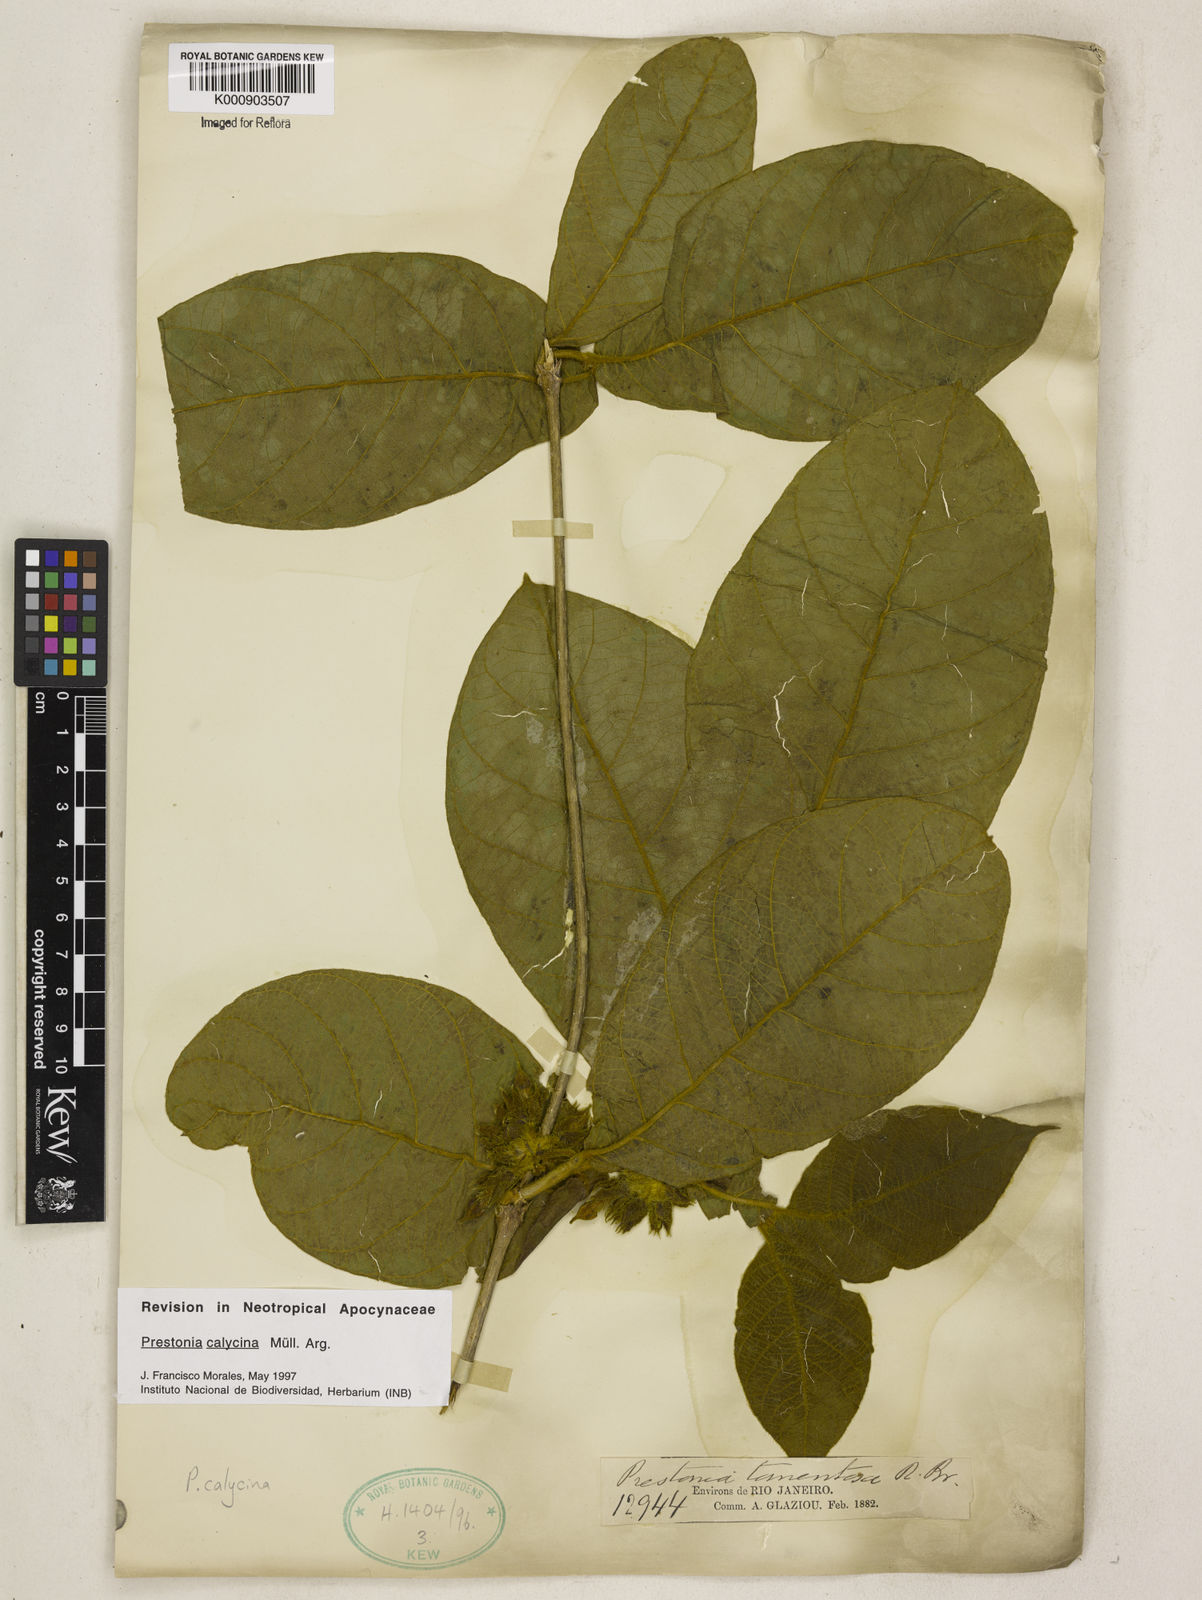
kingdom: Plantae
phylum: Tracheophyta
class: Magnoliopsida
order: Gentianales
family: Apocynaceae
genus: Prestonia
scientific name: Prestonia
